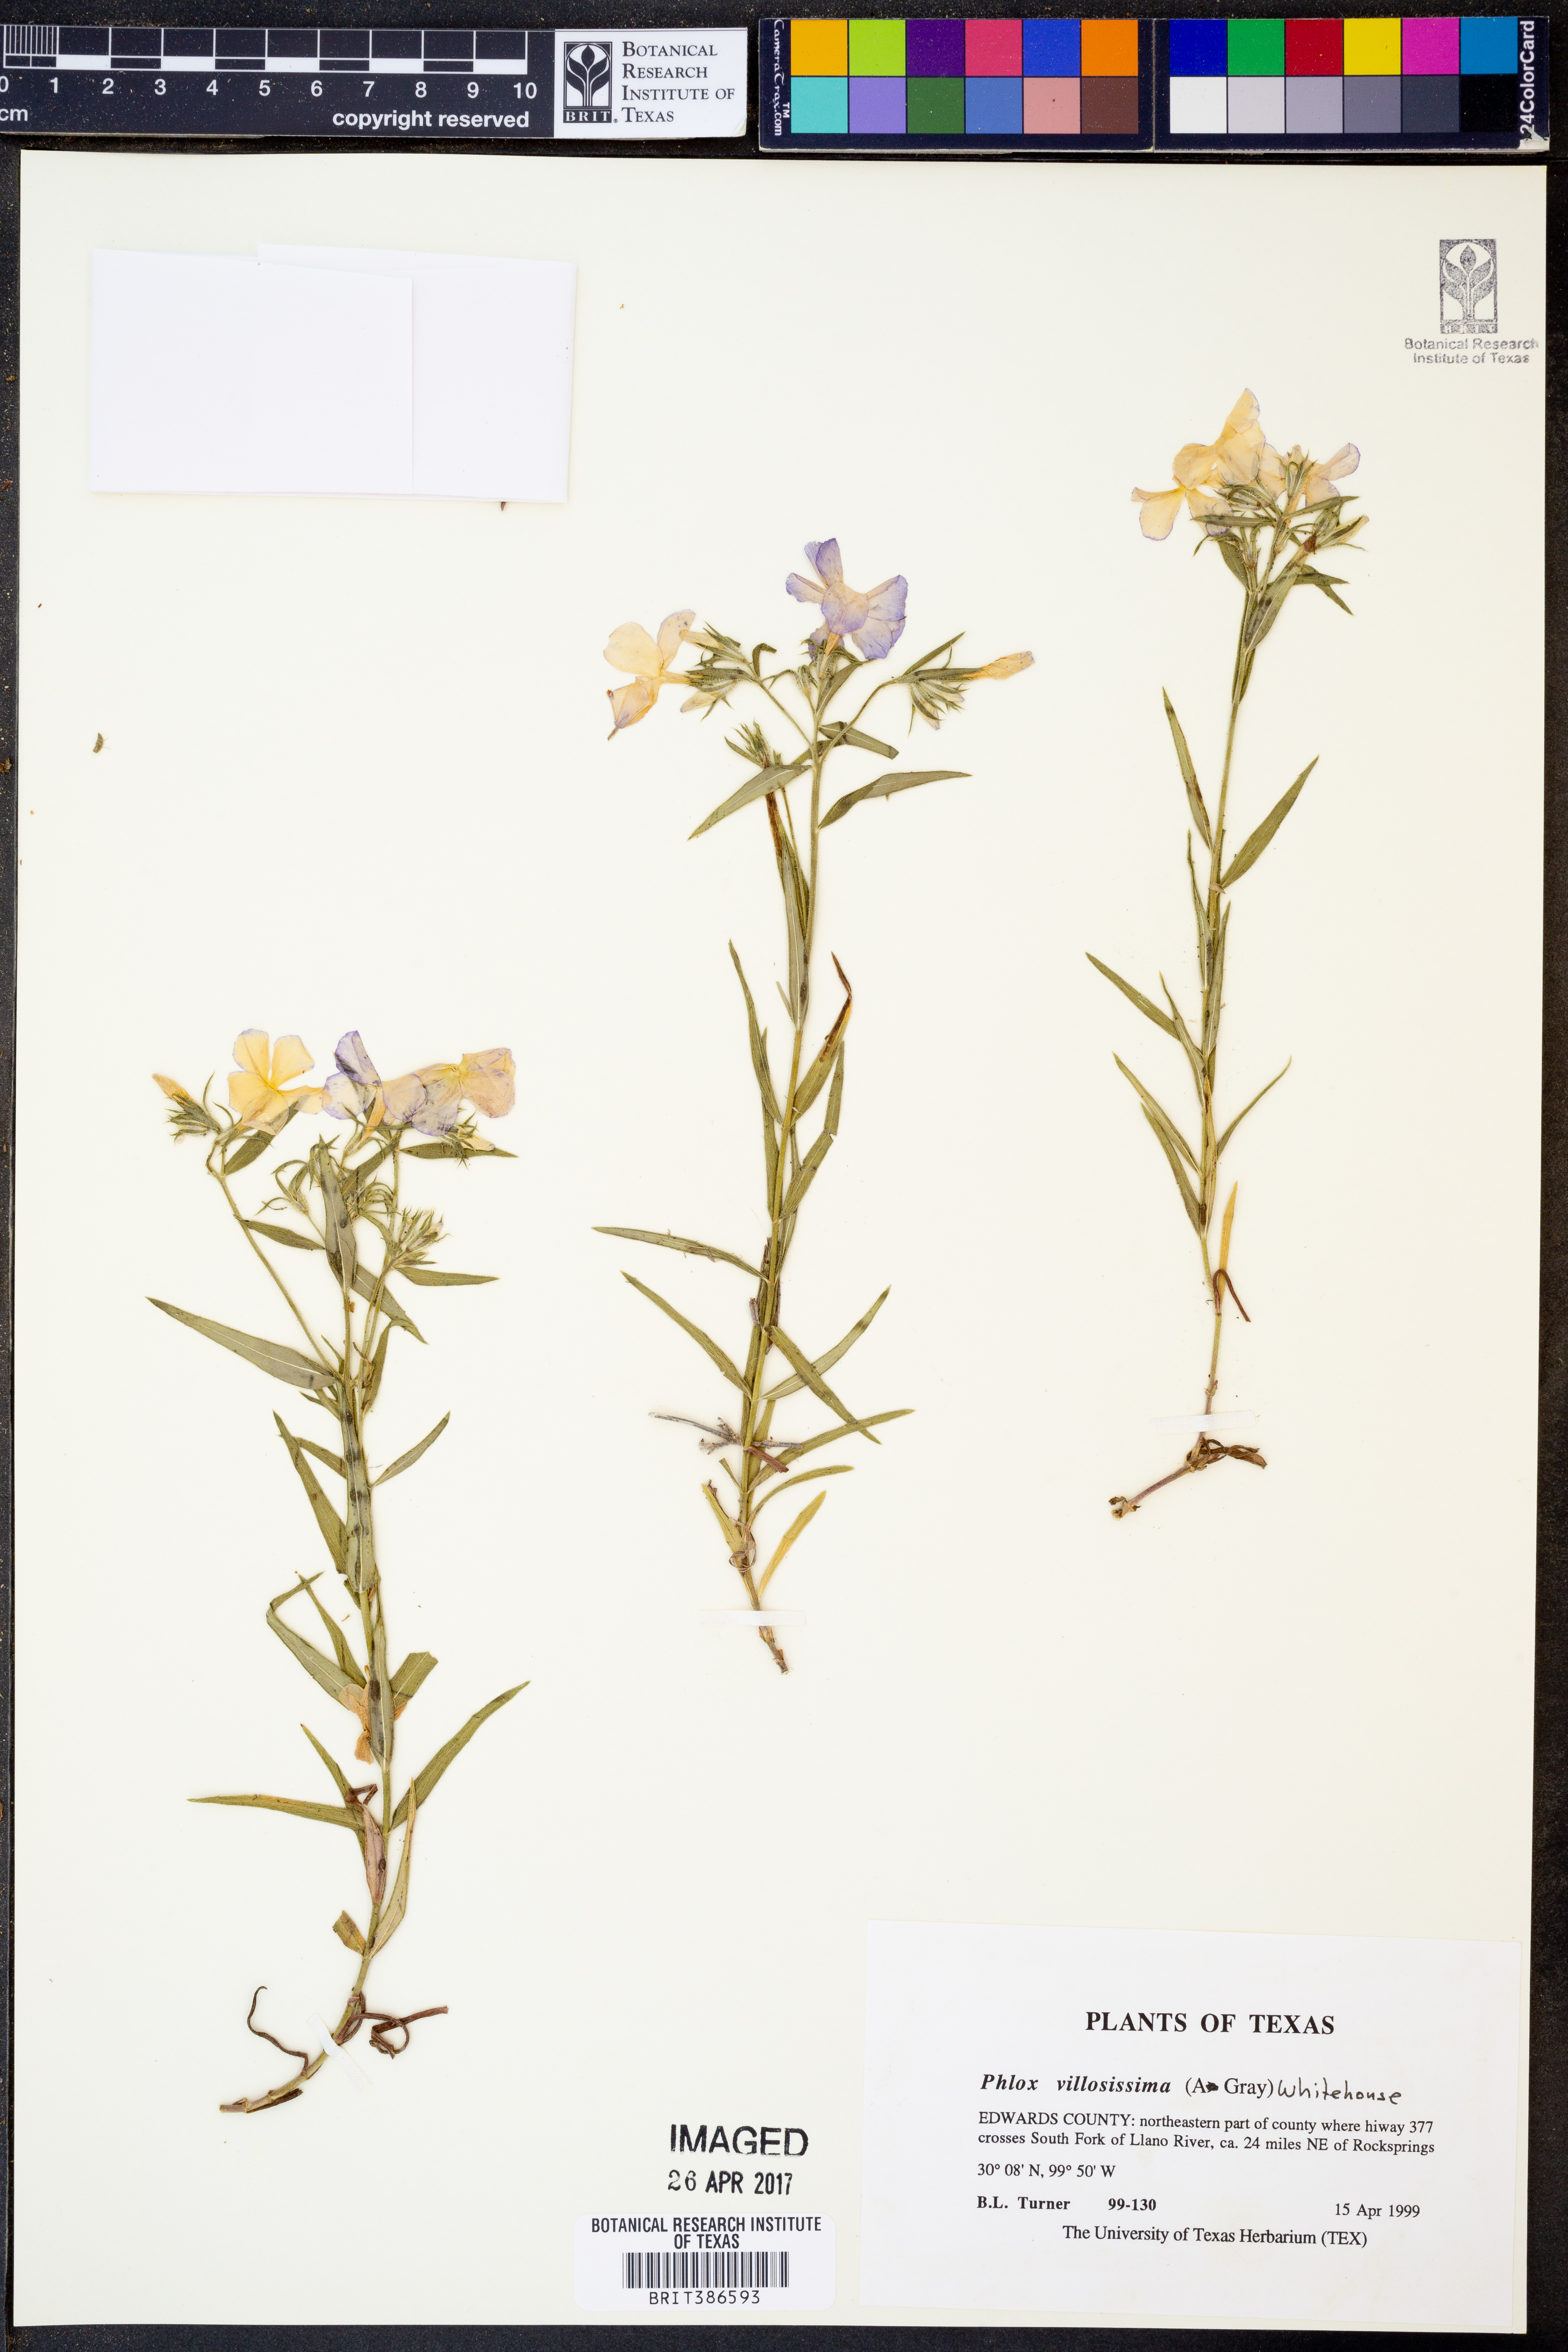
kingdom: Plantae
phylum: Tracheophyta
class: Magnoliopsida
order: Ericales
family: Polemoniaceae
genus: Phlox
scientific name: Phlox pilosa
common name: Prairie phlox
